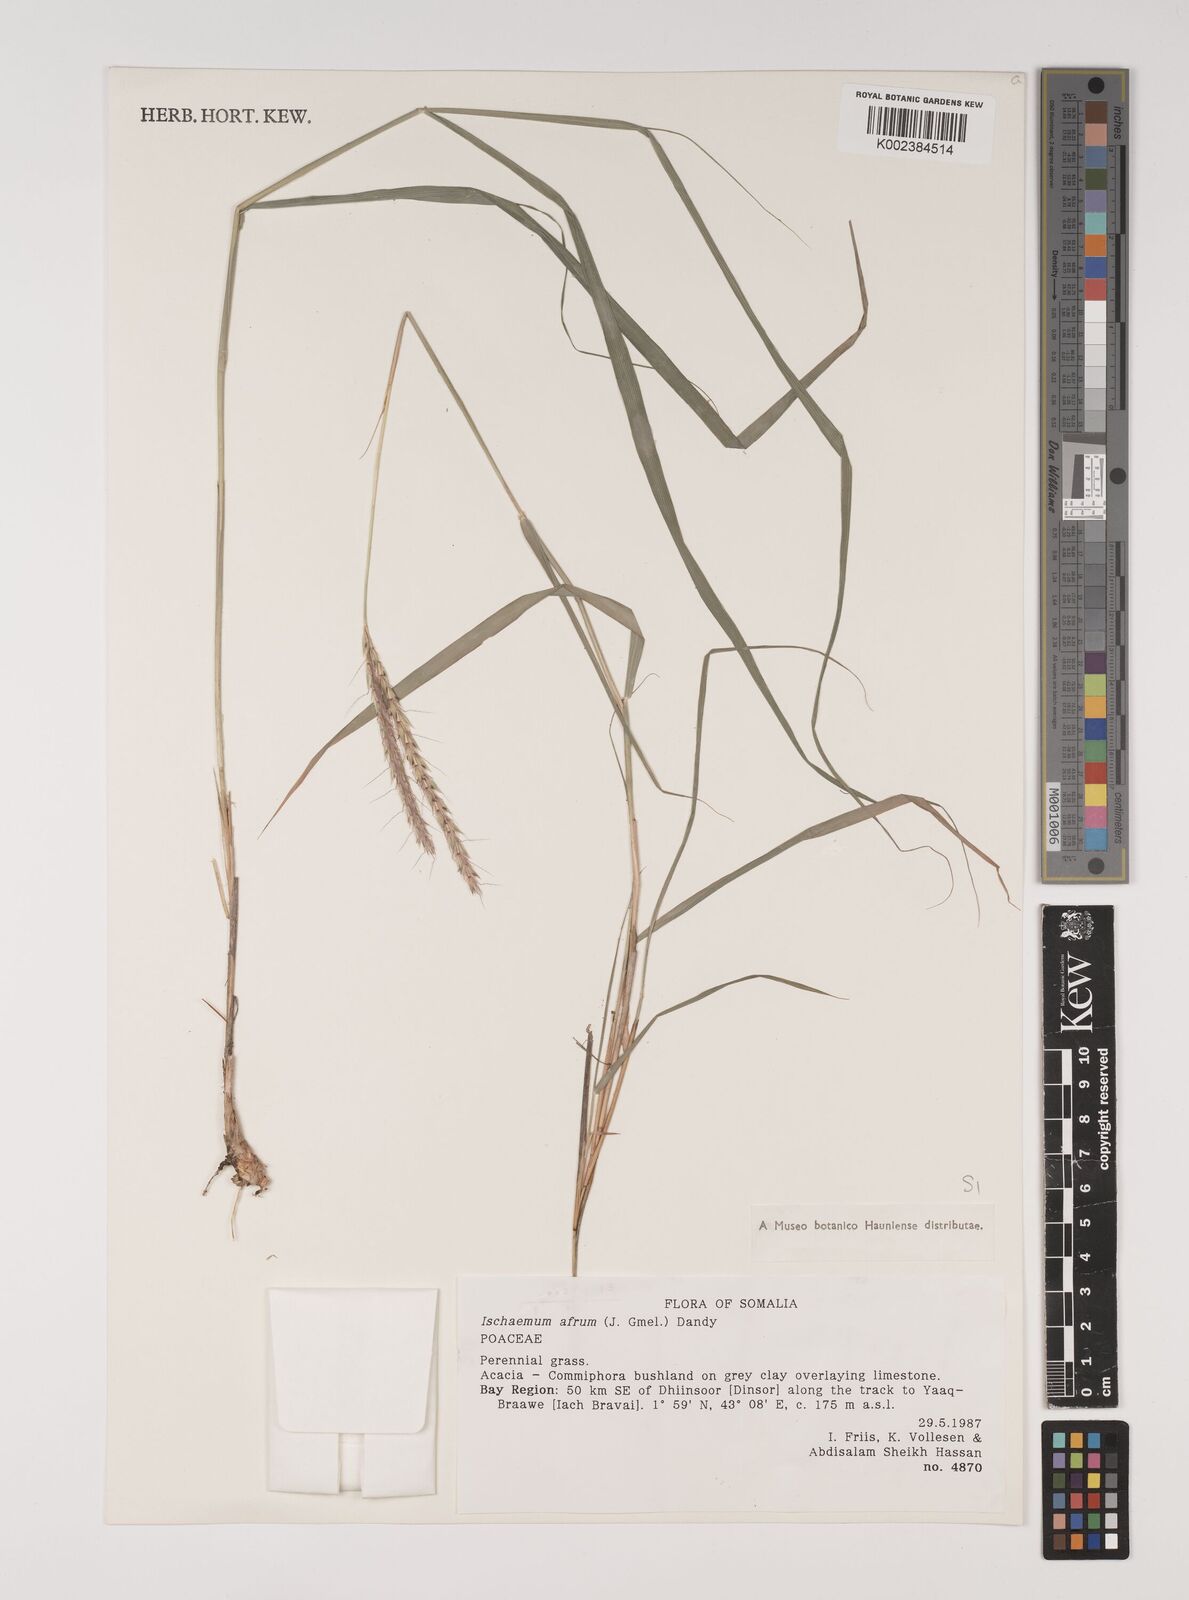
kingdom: Plantae
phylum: Tracheophyta
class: Liliopsida
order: Poales
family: Poaceae
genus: Ischaemum
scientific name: Ischaemum afrum
